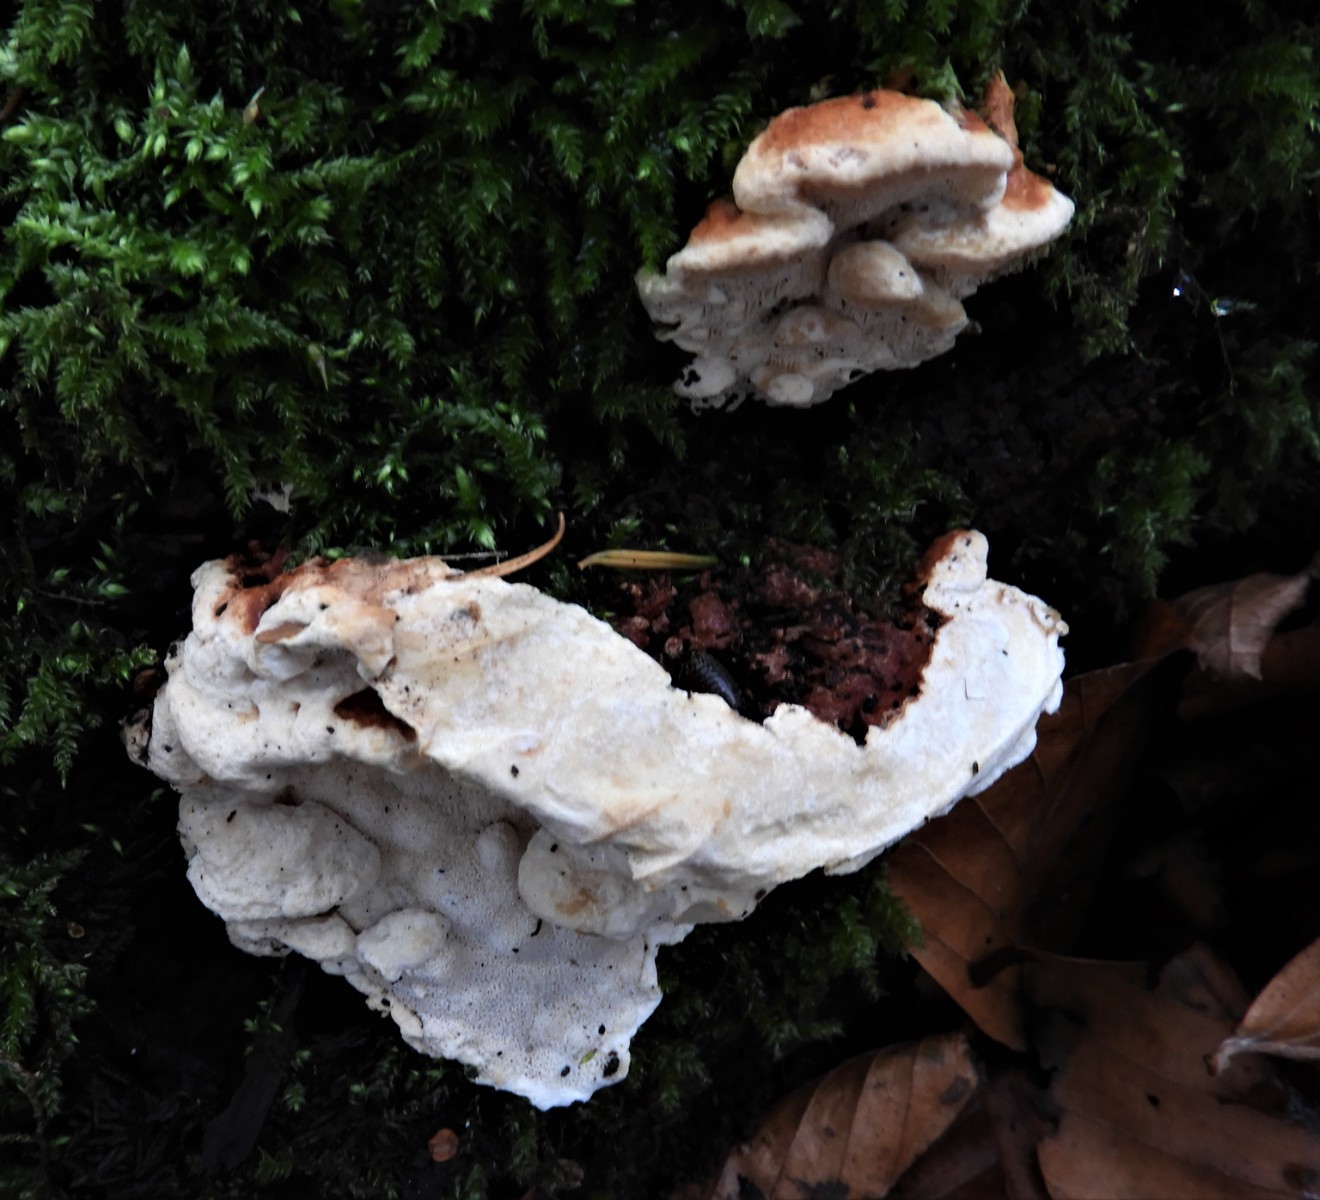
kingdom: Fungi
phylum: Basidiomycota
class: Agaricomycetes
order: Russulales
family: Bondarzewiaceae
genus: Heterobasidion
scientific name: Heterobasidion annosum
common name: almindelig rodfordærver
